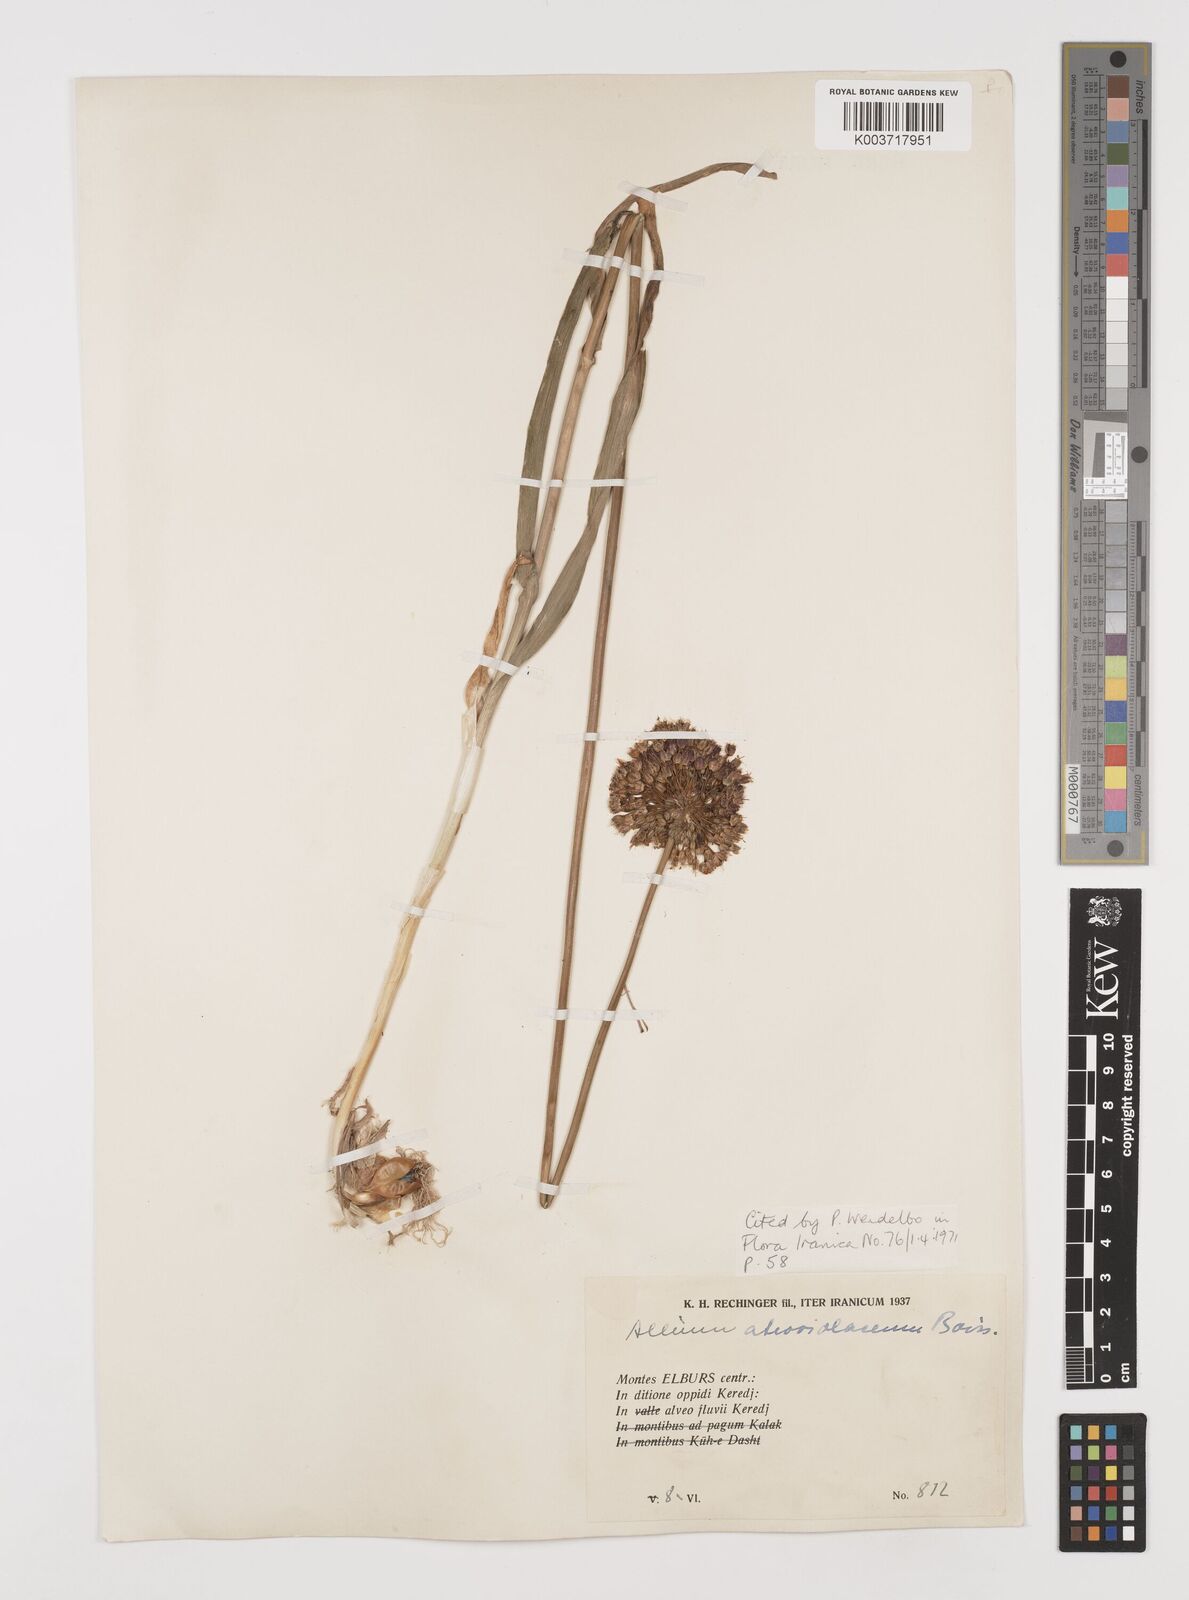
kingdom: Plantae
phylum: Tracheophyta
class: Liliopsida
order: Asparagales
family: Amaryllidaceae
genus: Allium
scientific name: Allium atroviolaceum
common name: Broadleaf wild leek
